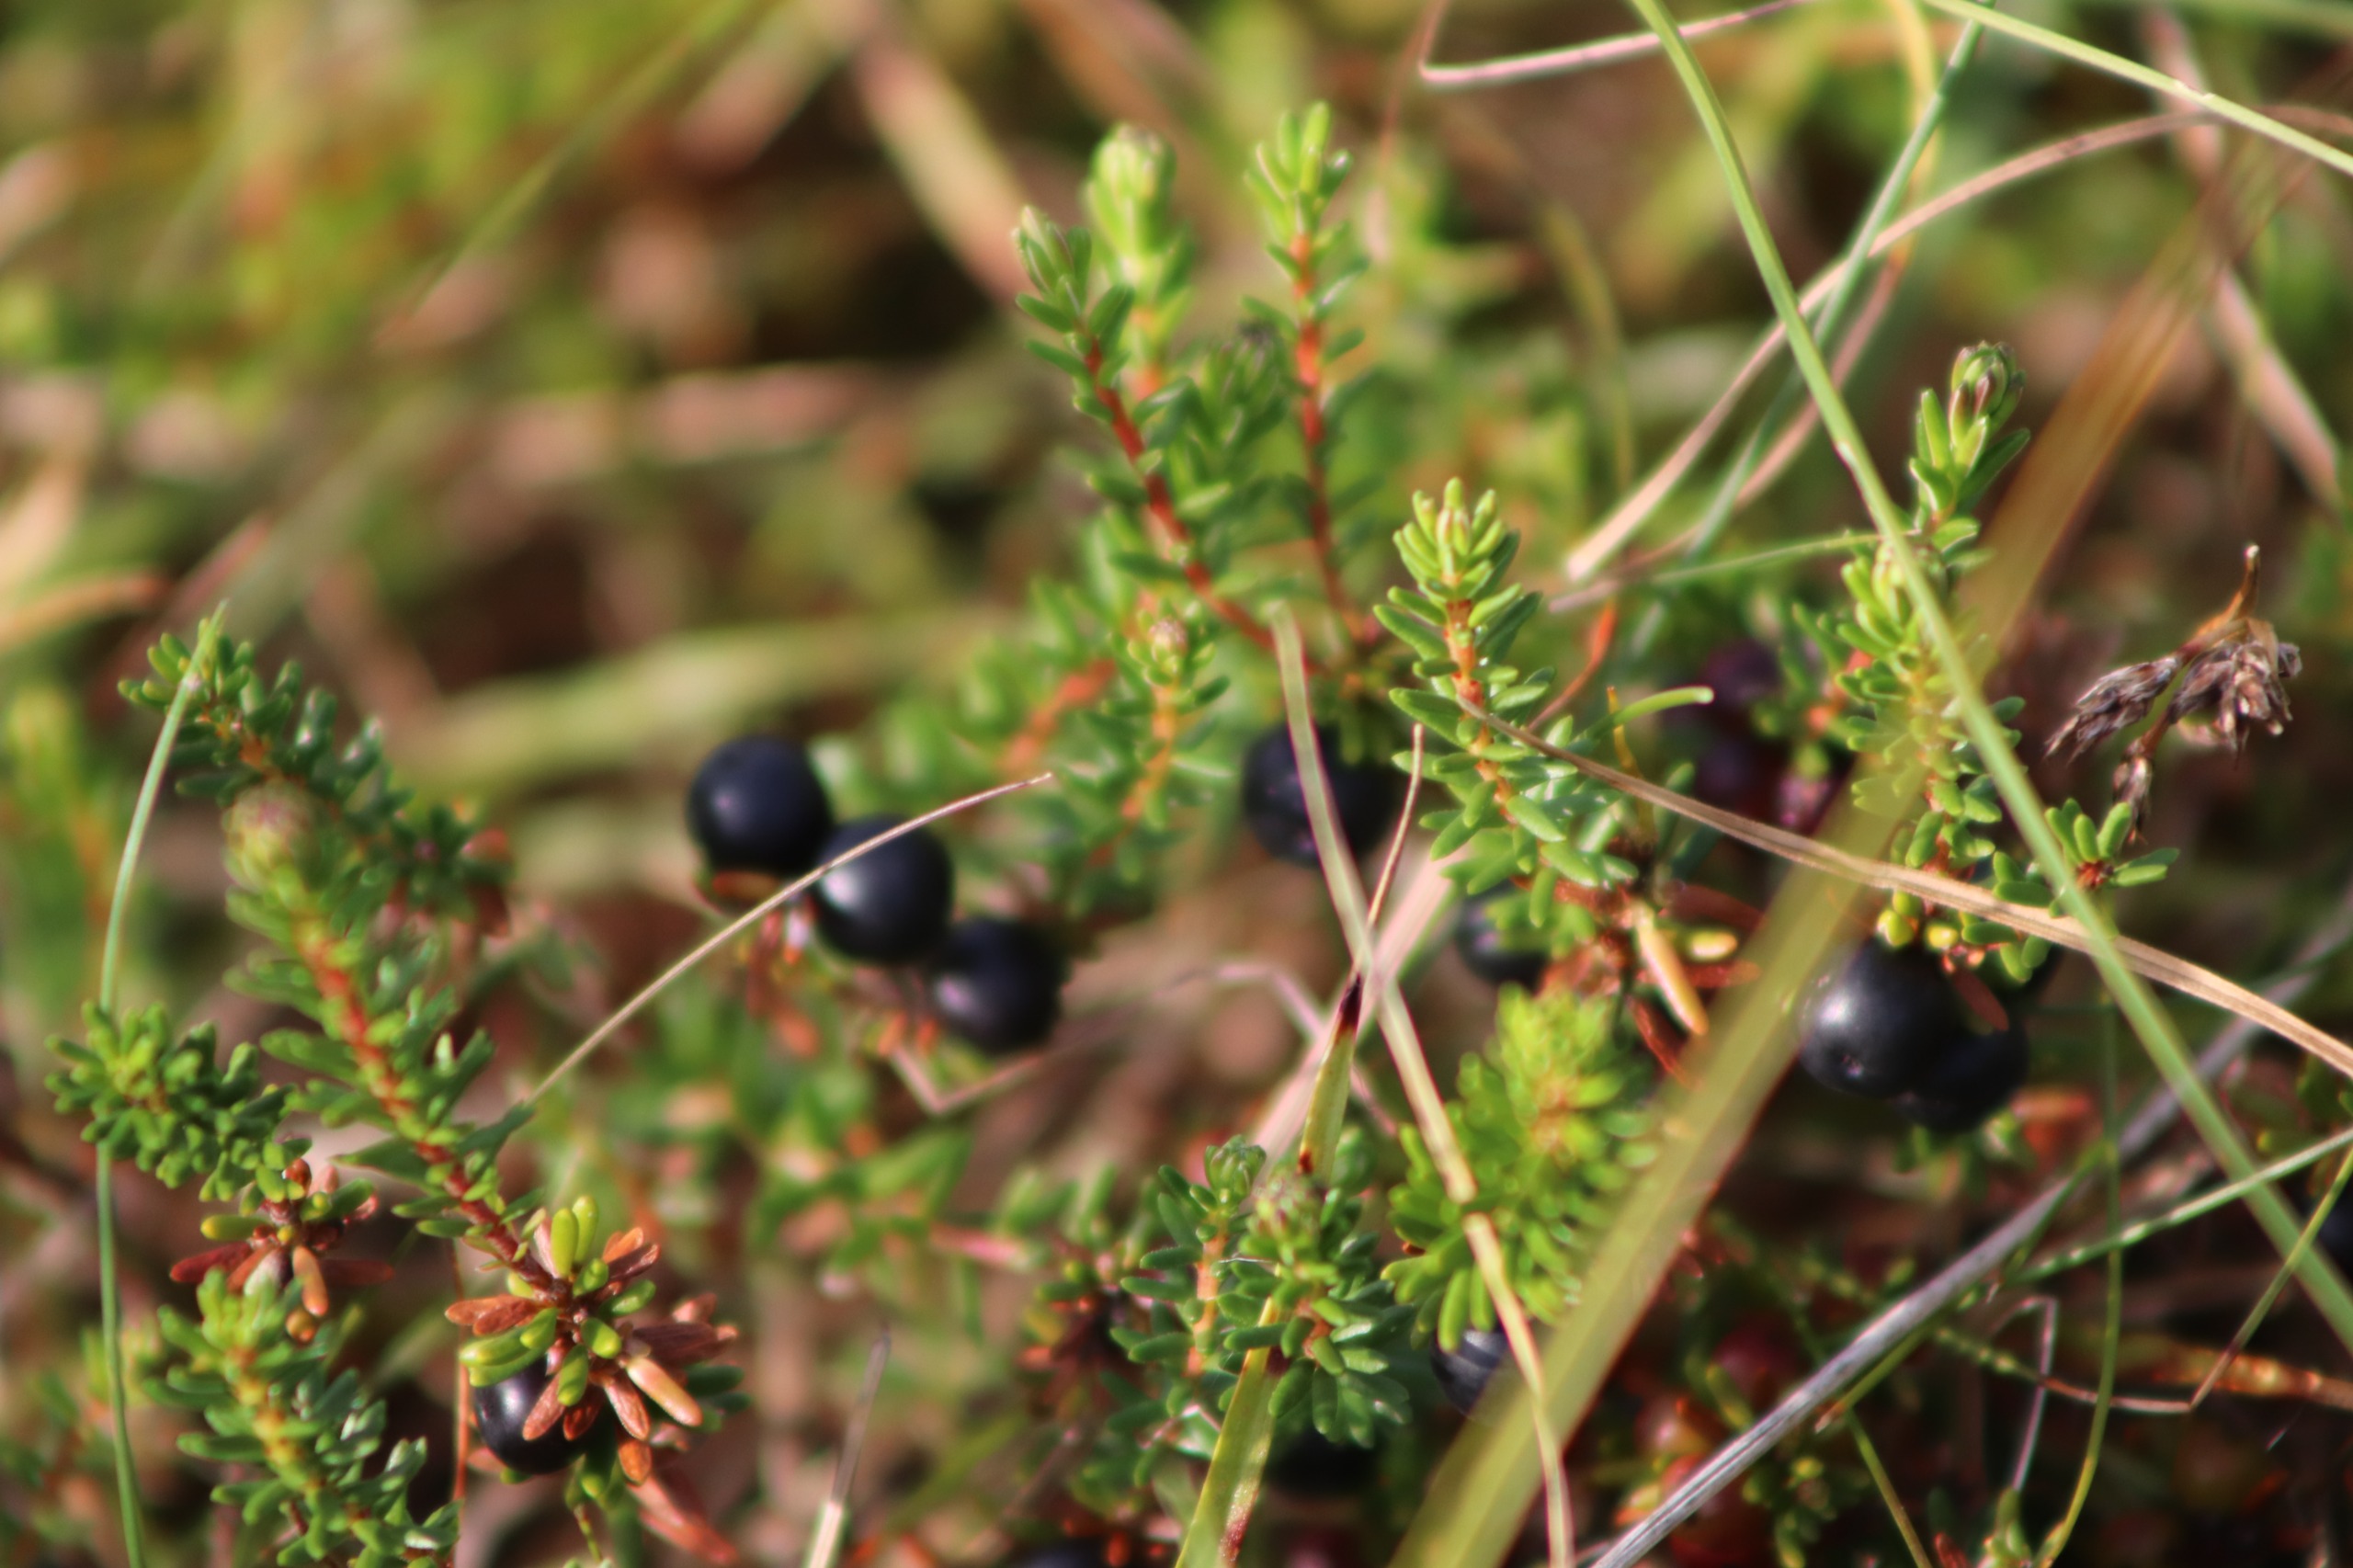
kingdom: Plantae
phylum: Tracheophyta
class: Magnoliopsida
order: Ericales
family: Ericaceae
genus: Empetrum
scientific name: Empetrum nigrum
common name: Revling
